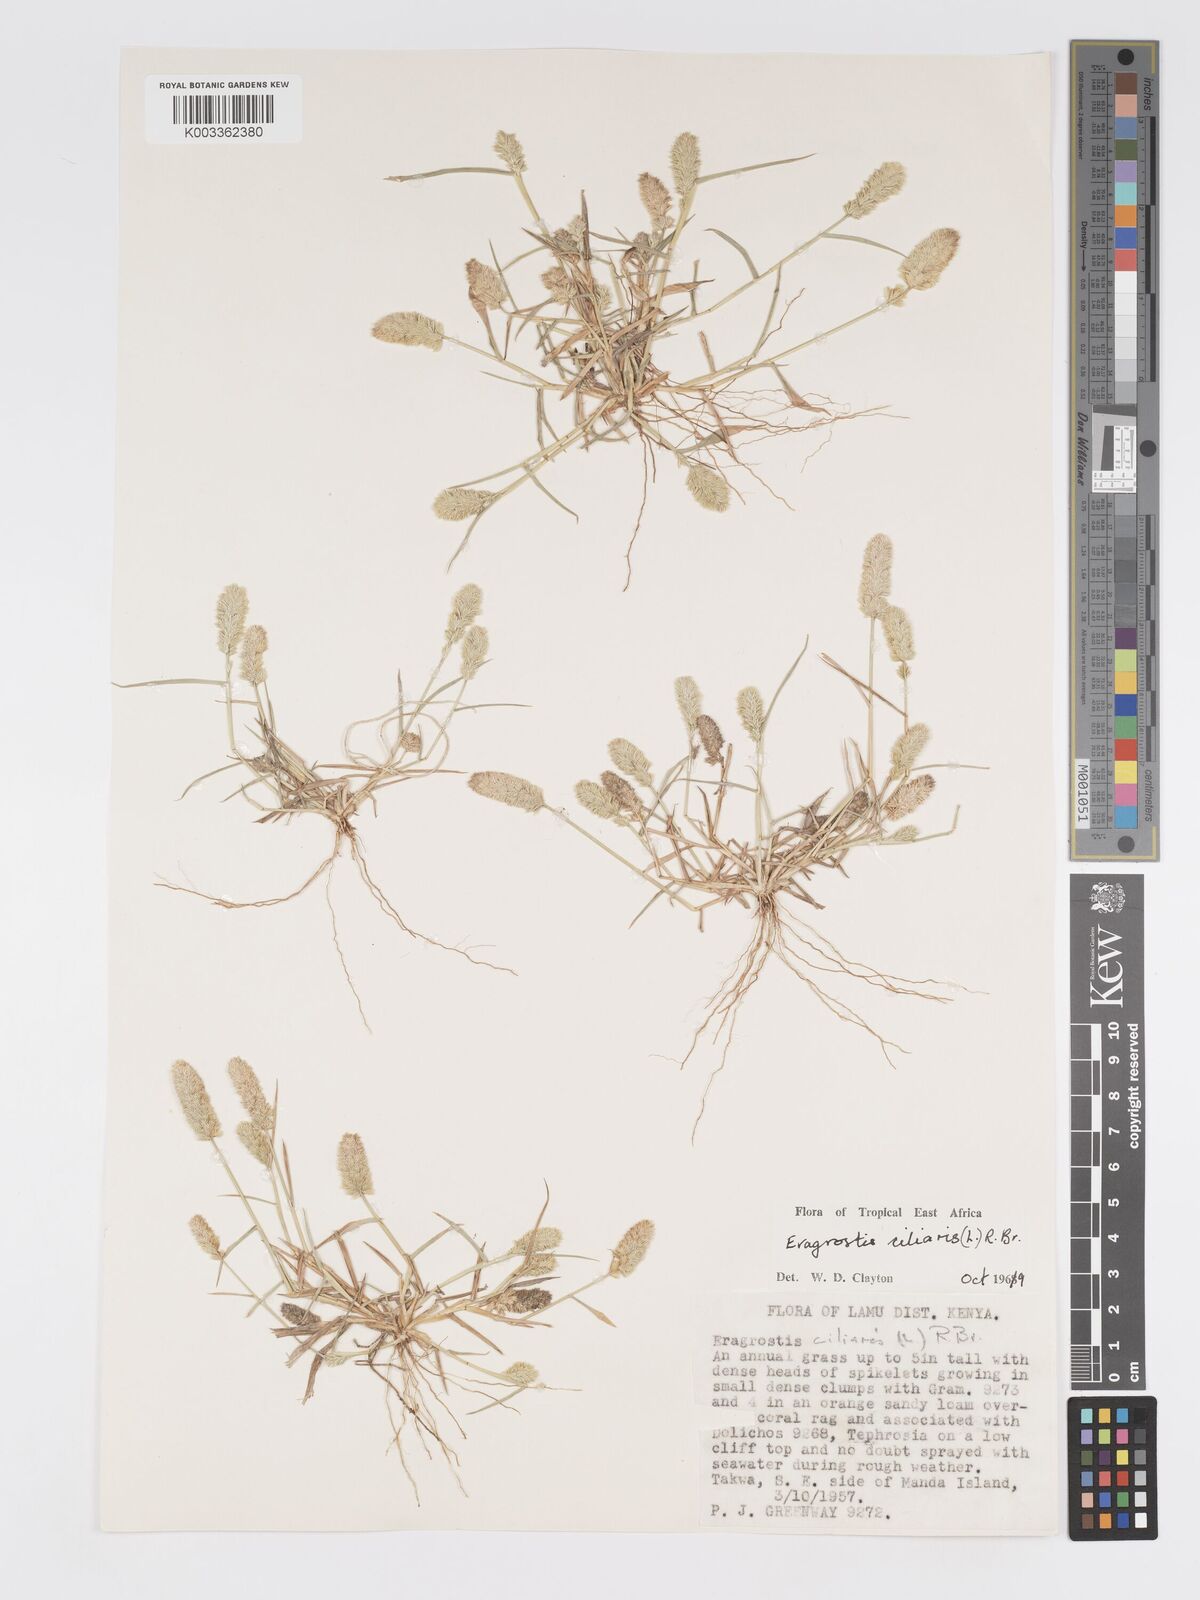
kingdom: Plantae
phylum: Tracheophyta
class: Liliopsida
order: Poales
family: Poaceae
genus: Eragrostis
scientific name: Eragrostis ciliaris
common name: Gophertail lovegrass
